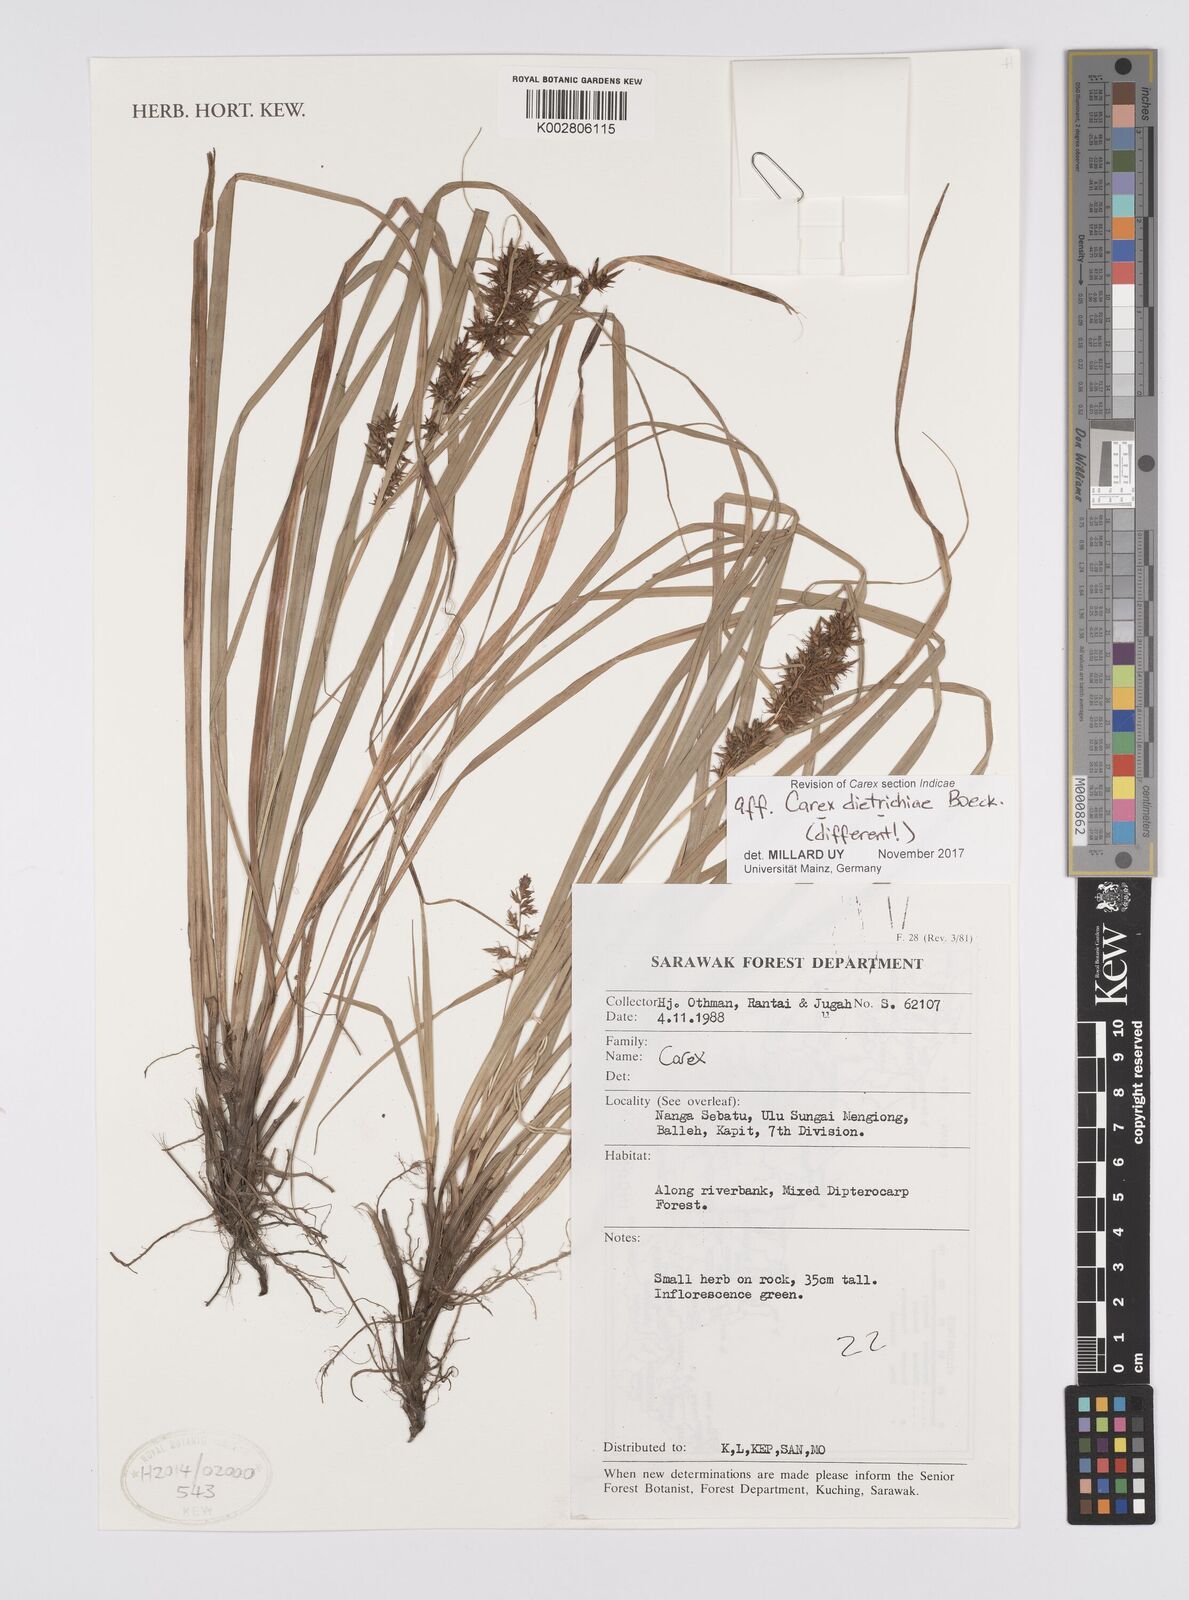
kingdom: Plantae
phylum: Tracheophyta
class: Liliopsida
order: Poales
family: Cyperaceae
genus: Carex
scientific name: Carex indica
